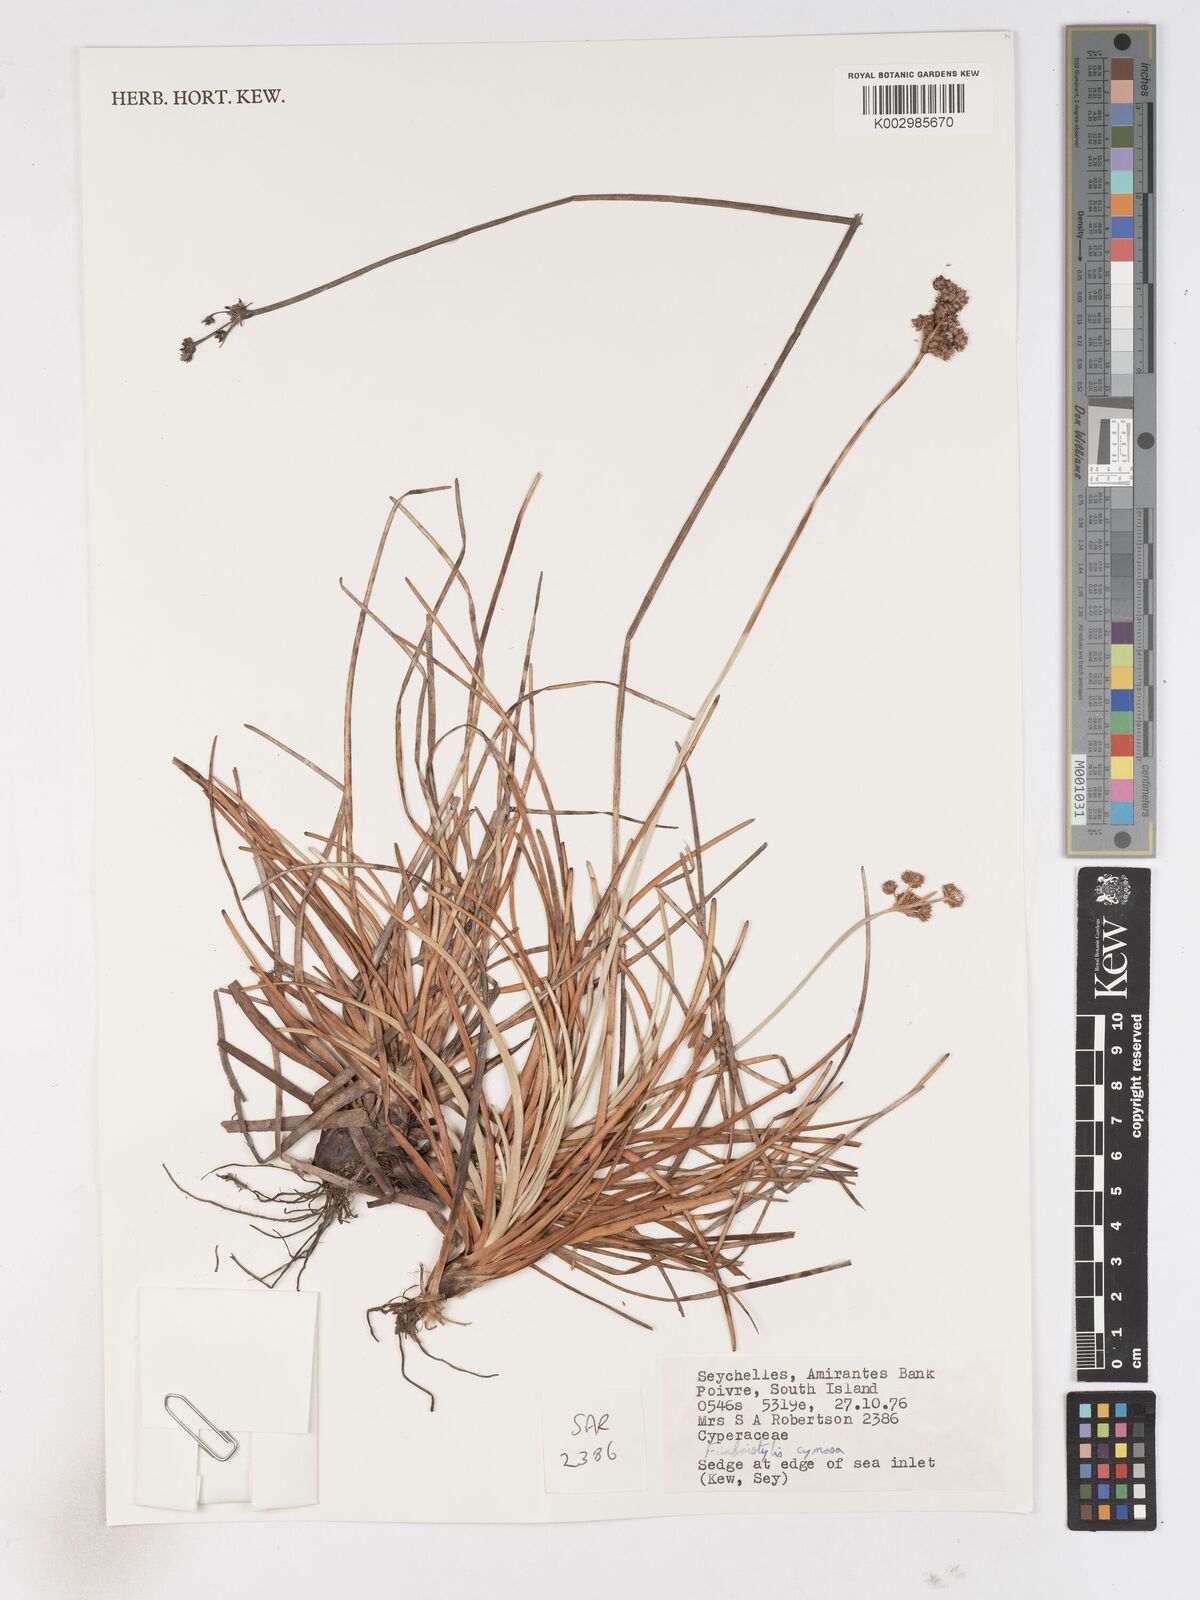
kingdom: Plantae
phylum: Tracheophyta
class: Liliopsida
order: Poales
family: Cyperaceae
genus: Fimbristylis
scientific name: Fimbristylis cymosa
